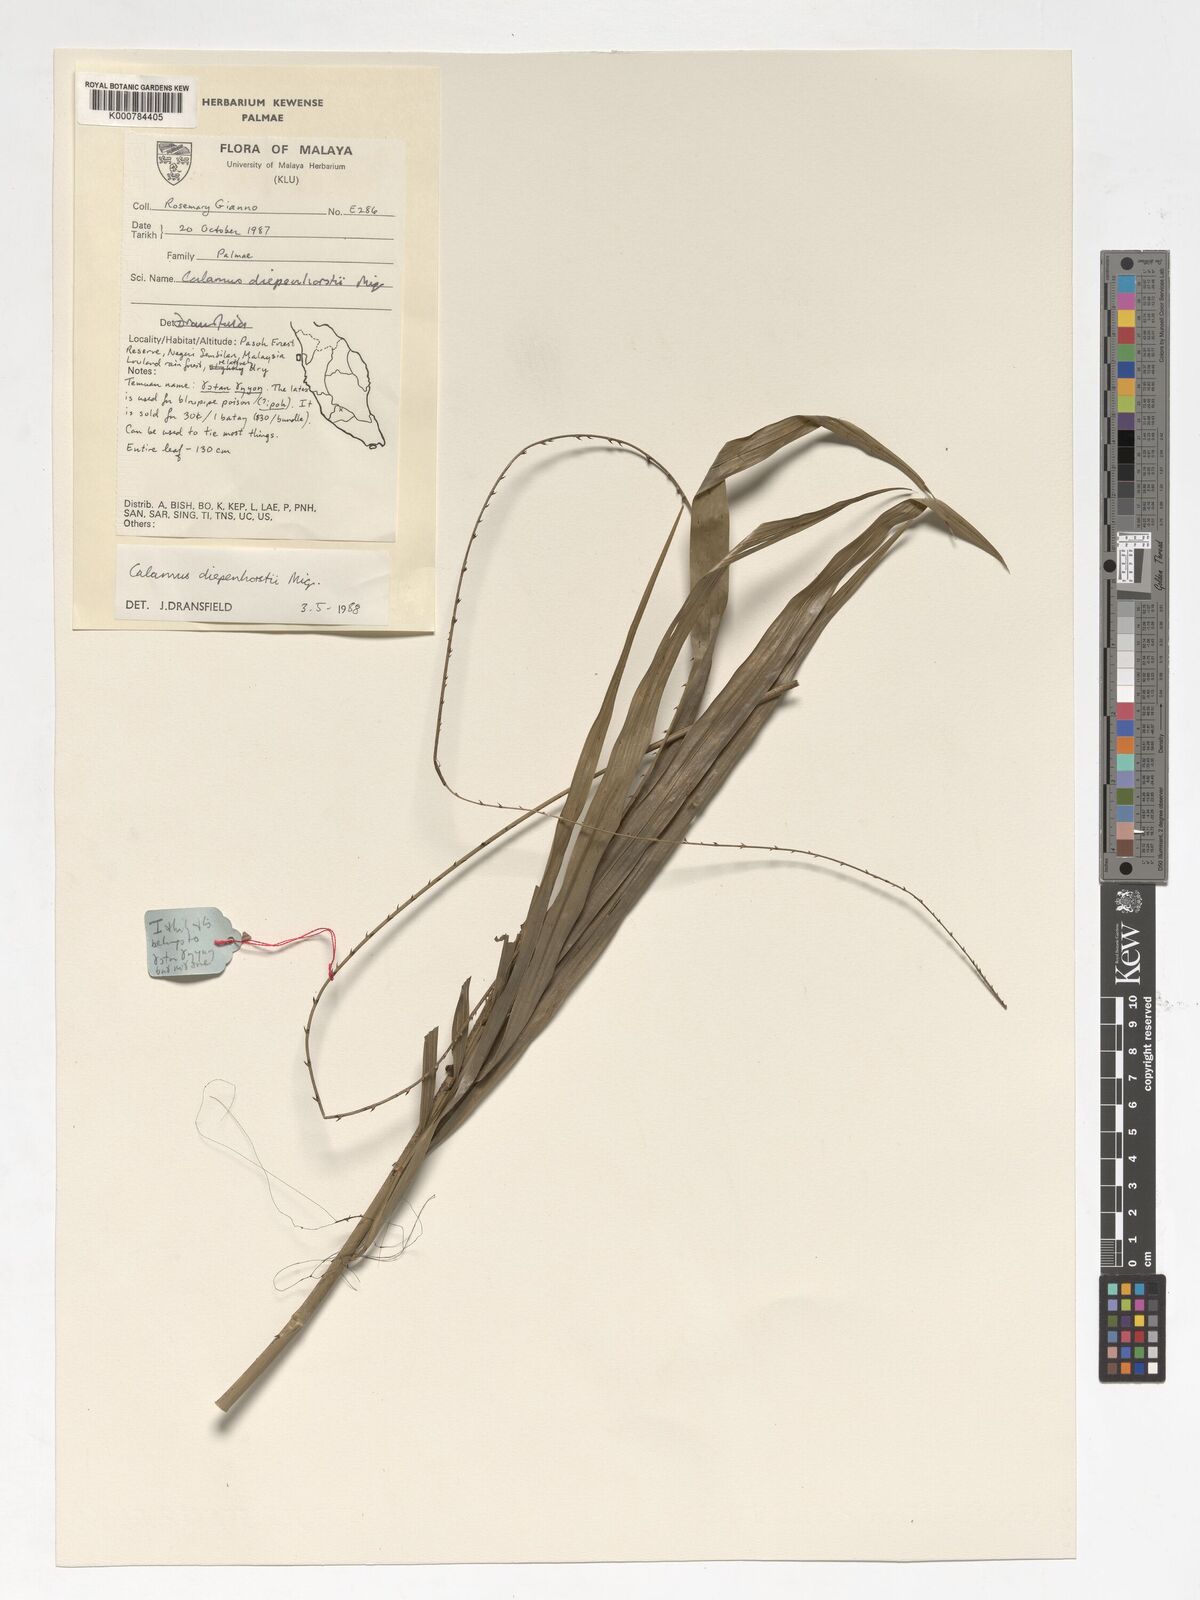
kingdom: Plantae
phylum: Tracheophyta
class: Liliopsida
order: Arecales
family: Arecaceae
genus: Calamus
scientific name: Calamus diepenhorstii
